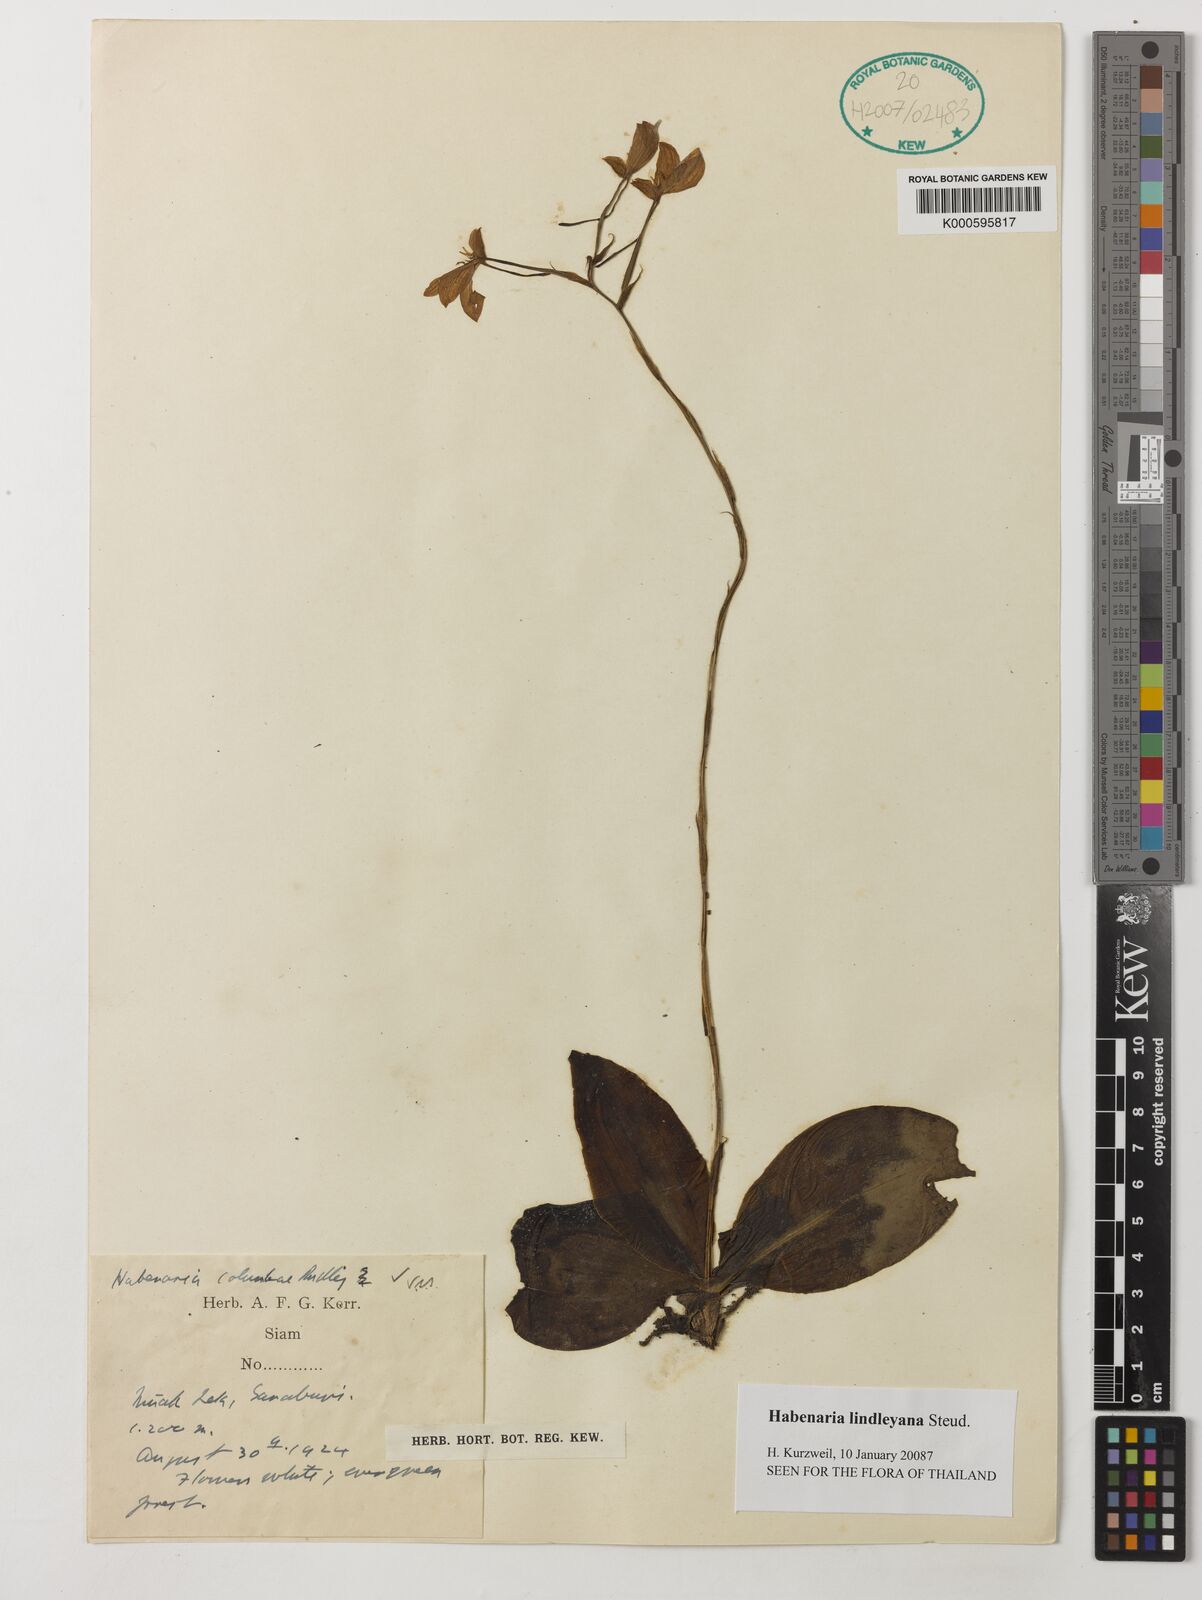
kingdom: Plantae
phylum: Tracheophyta
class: Liliopsida
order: Asparagales
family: Orchidaceae
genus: Habenaria
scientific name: Habenaria lindleyana
